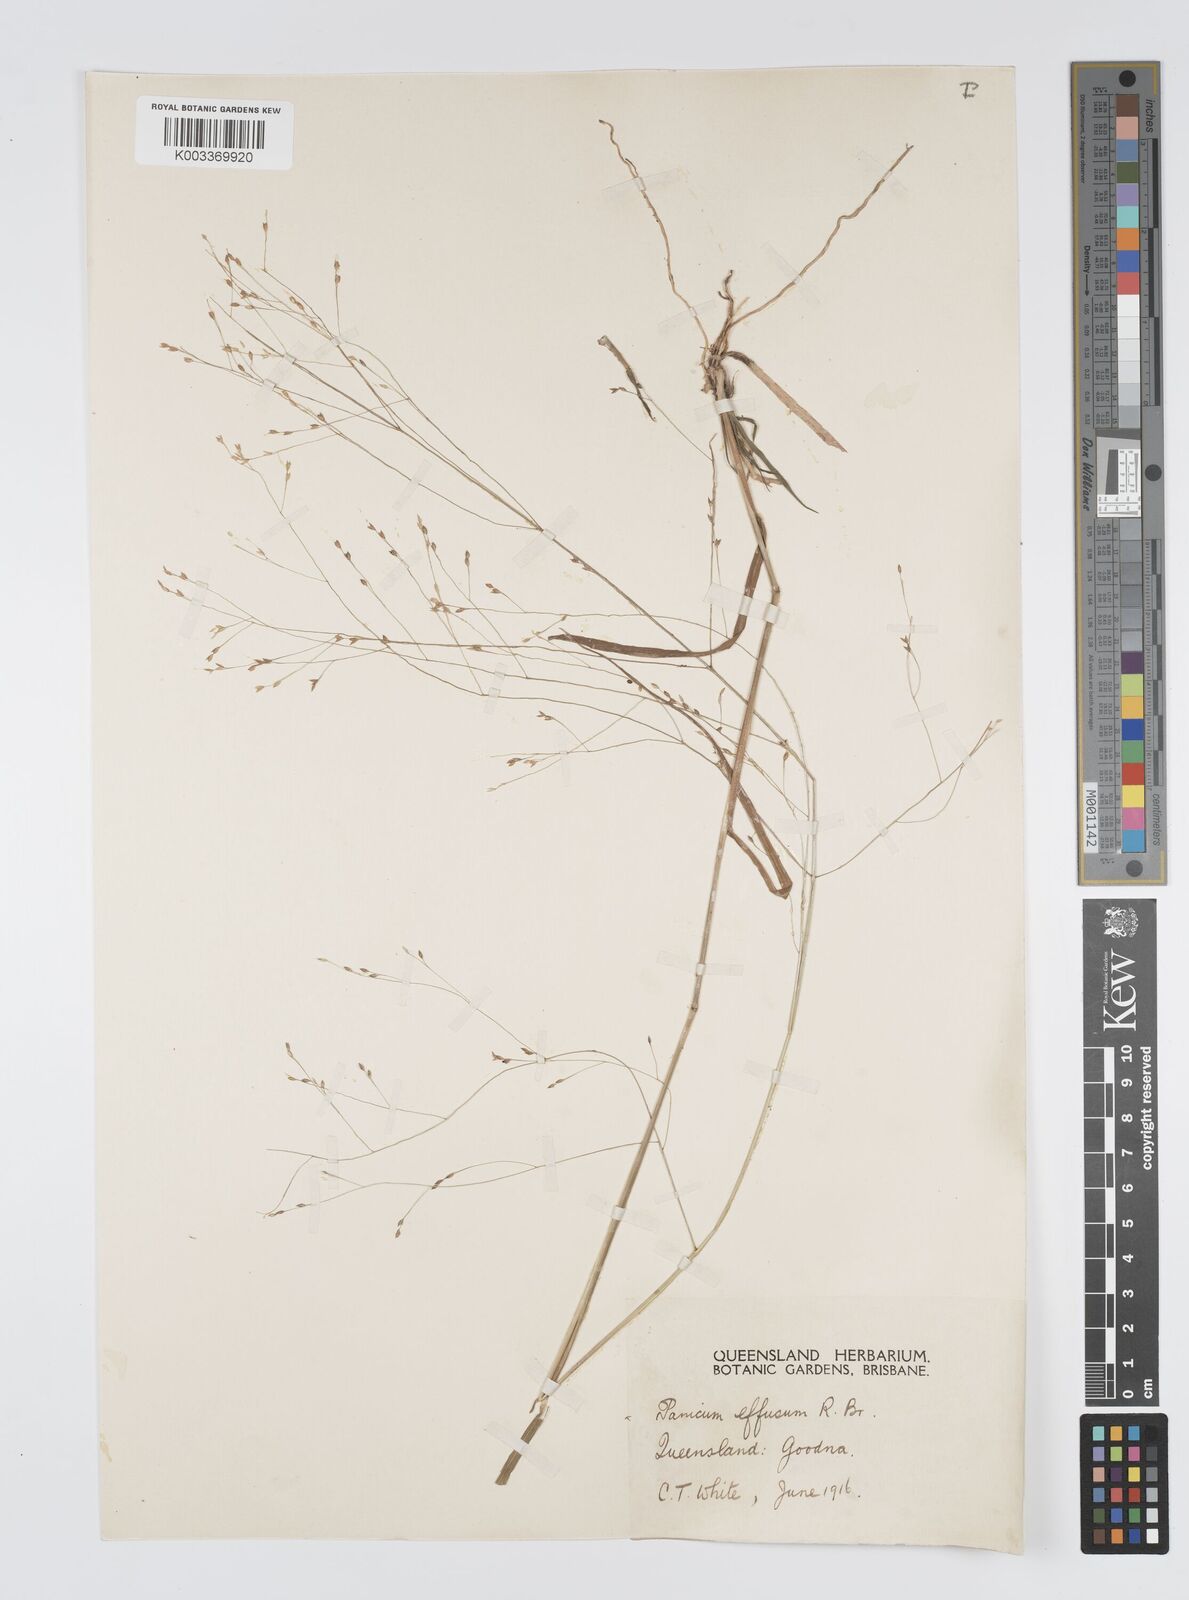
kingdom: Plantae
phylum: Tracheophyta
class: Liliopsida
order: Poales
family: Poaceae
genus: Panicum
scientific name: Panicum effusum
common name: Hairy panic grass
